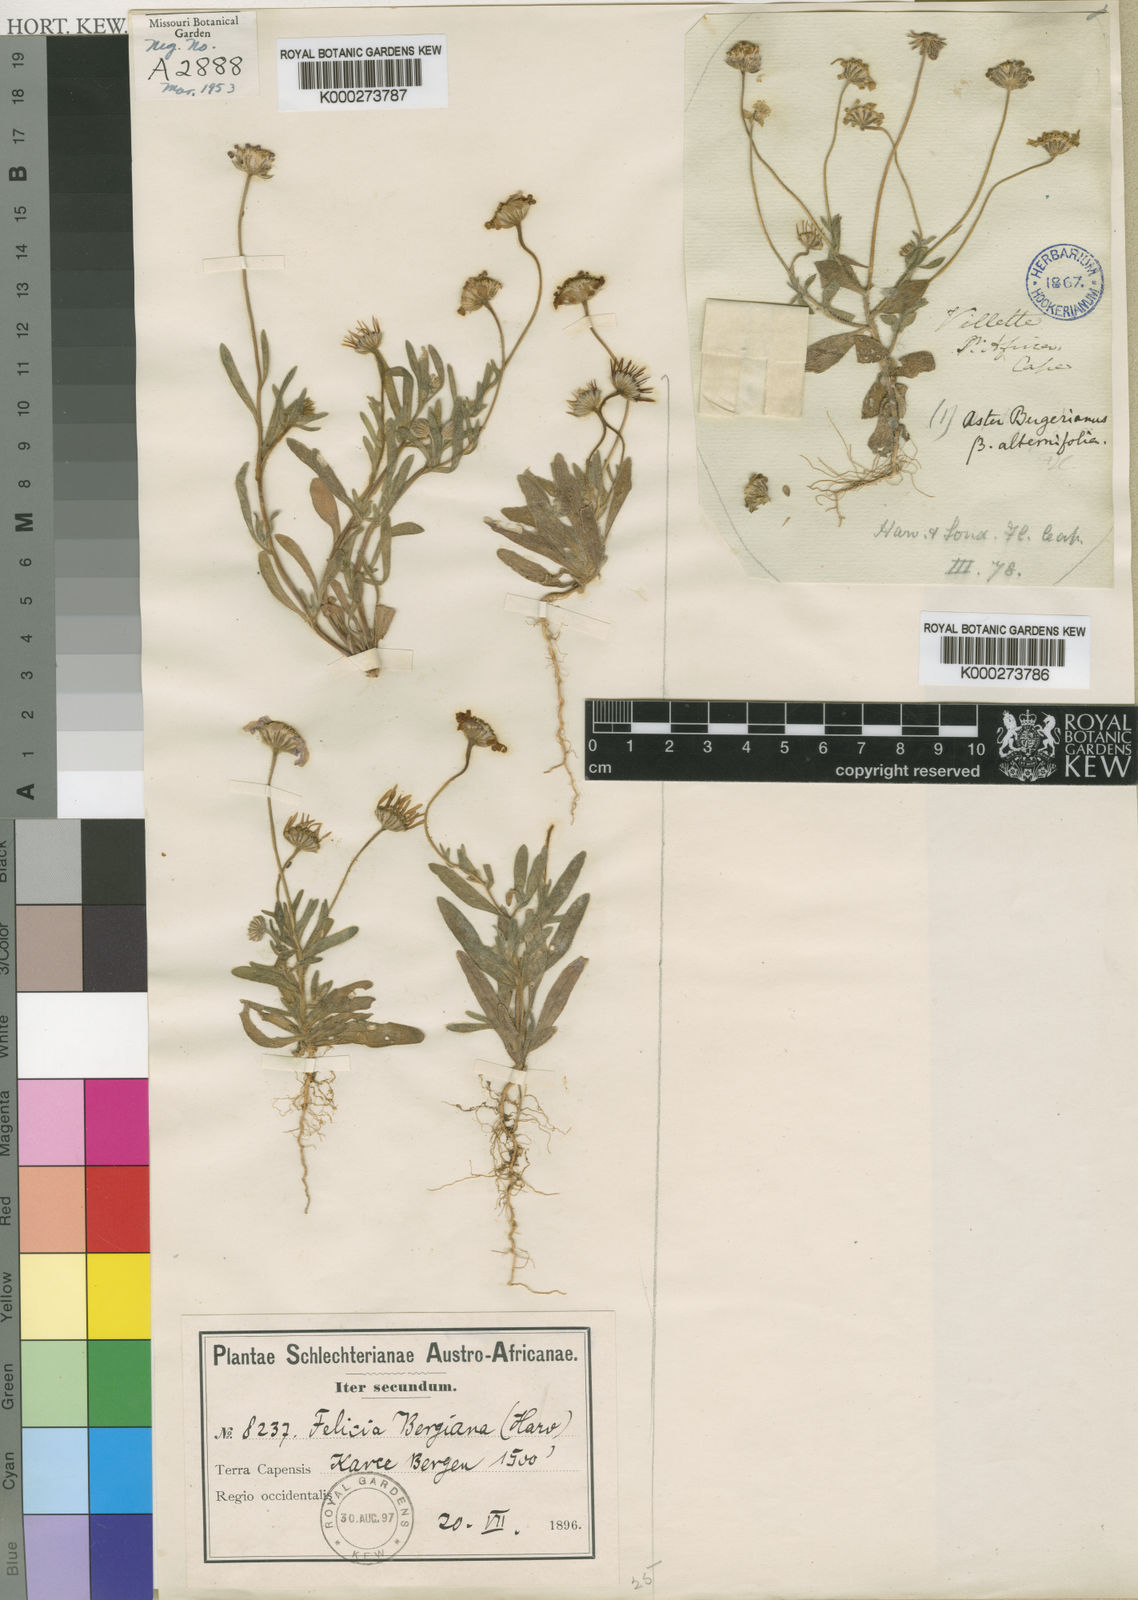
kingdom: Plantae
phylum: Tracheophyta
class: Magnoliopsida
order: Asterales
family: Asteraceae
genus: Felicia
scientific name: Felicia bergeriana
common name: Kingfisher daisy
